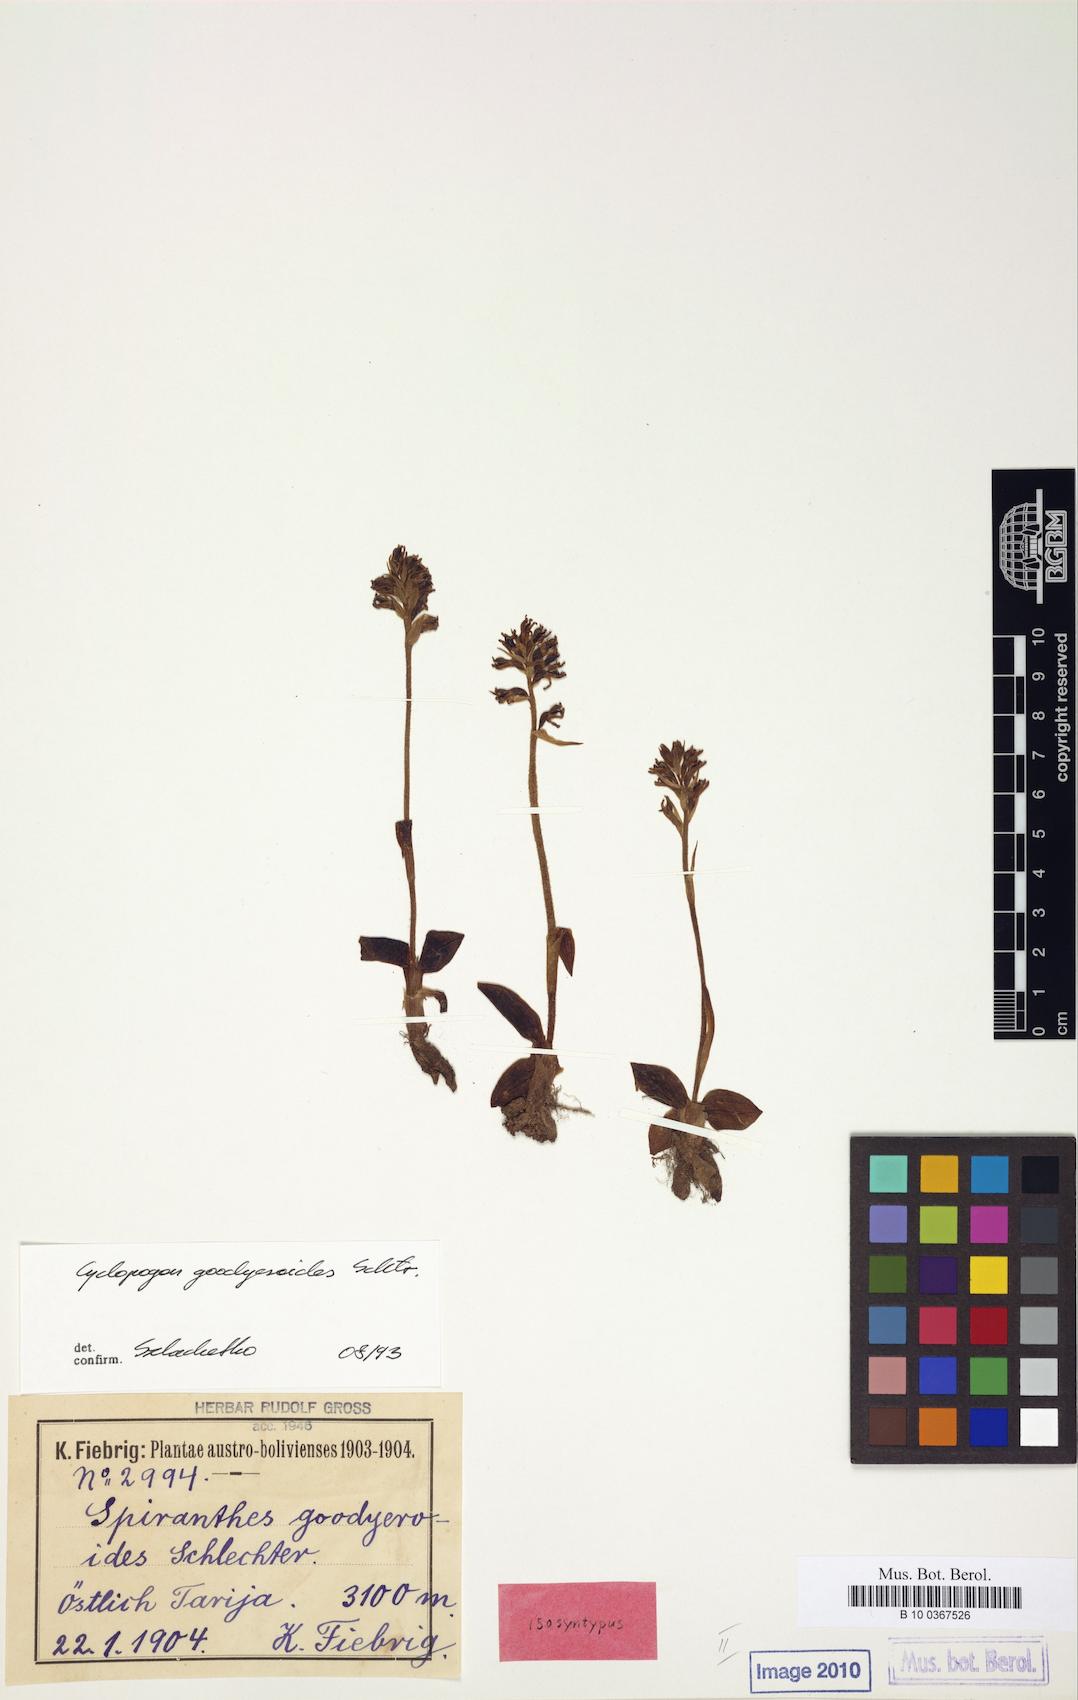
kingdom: Plantae
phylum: Tracheophyta
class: Liliopsida
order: Asparagales
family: Orchidaceae
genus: Cyclopogon
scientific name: Cyclopogon goodyeroides
